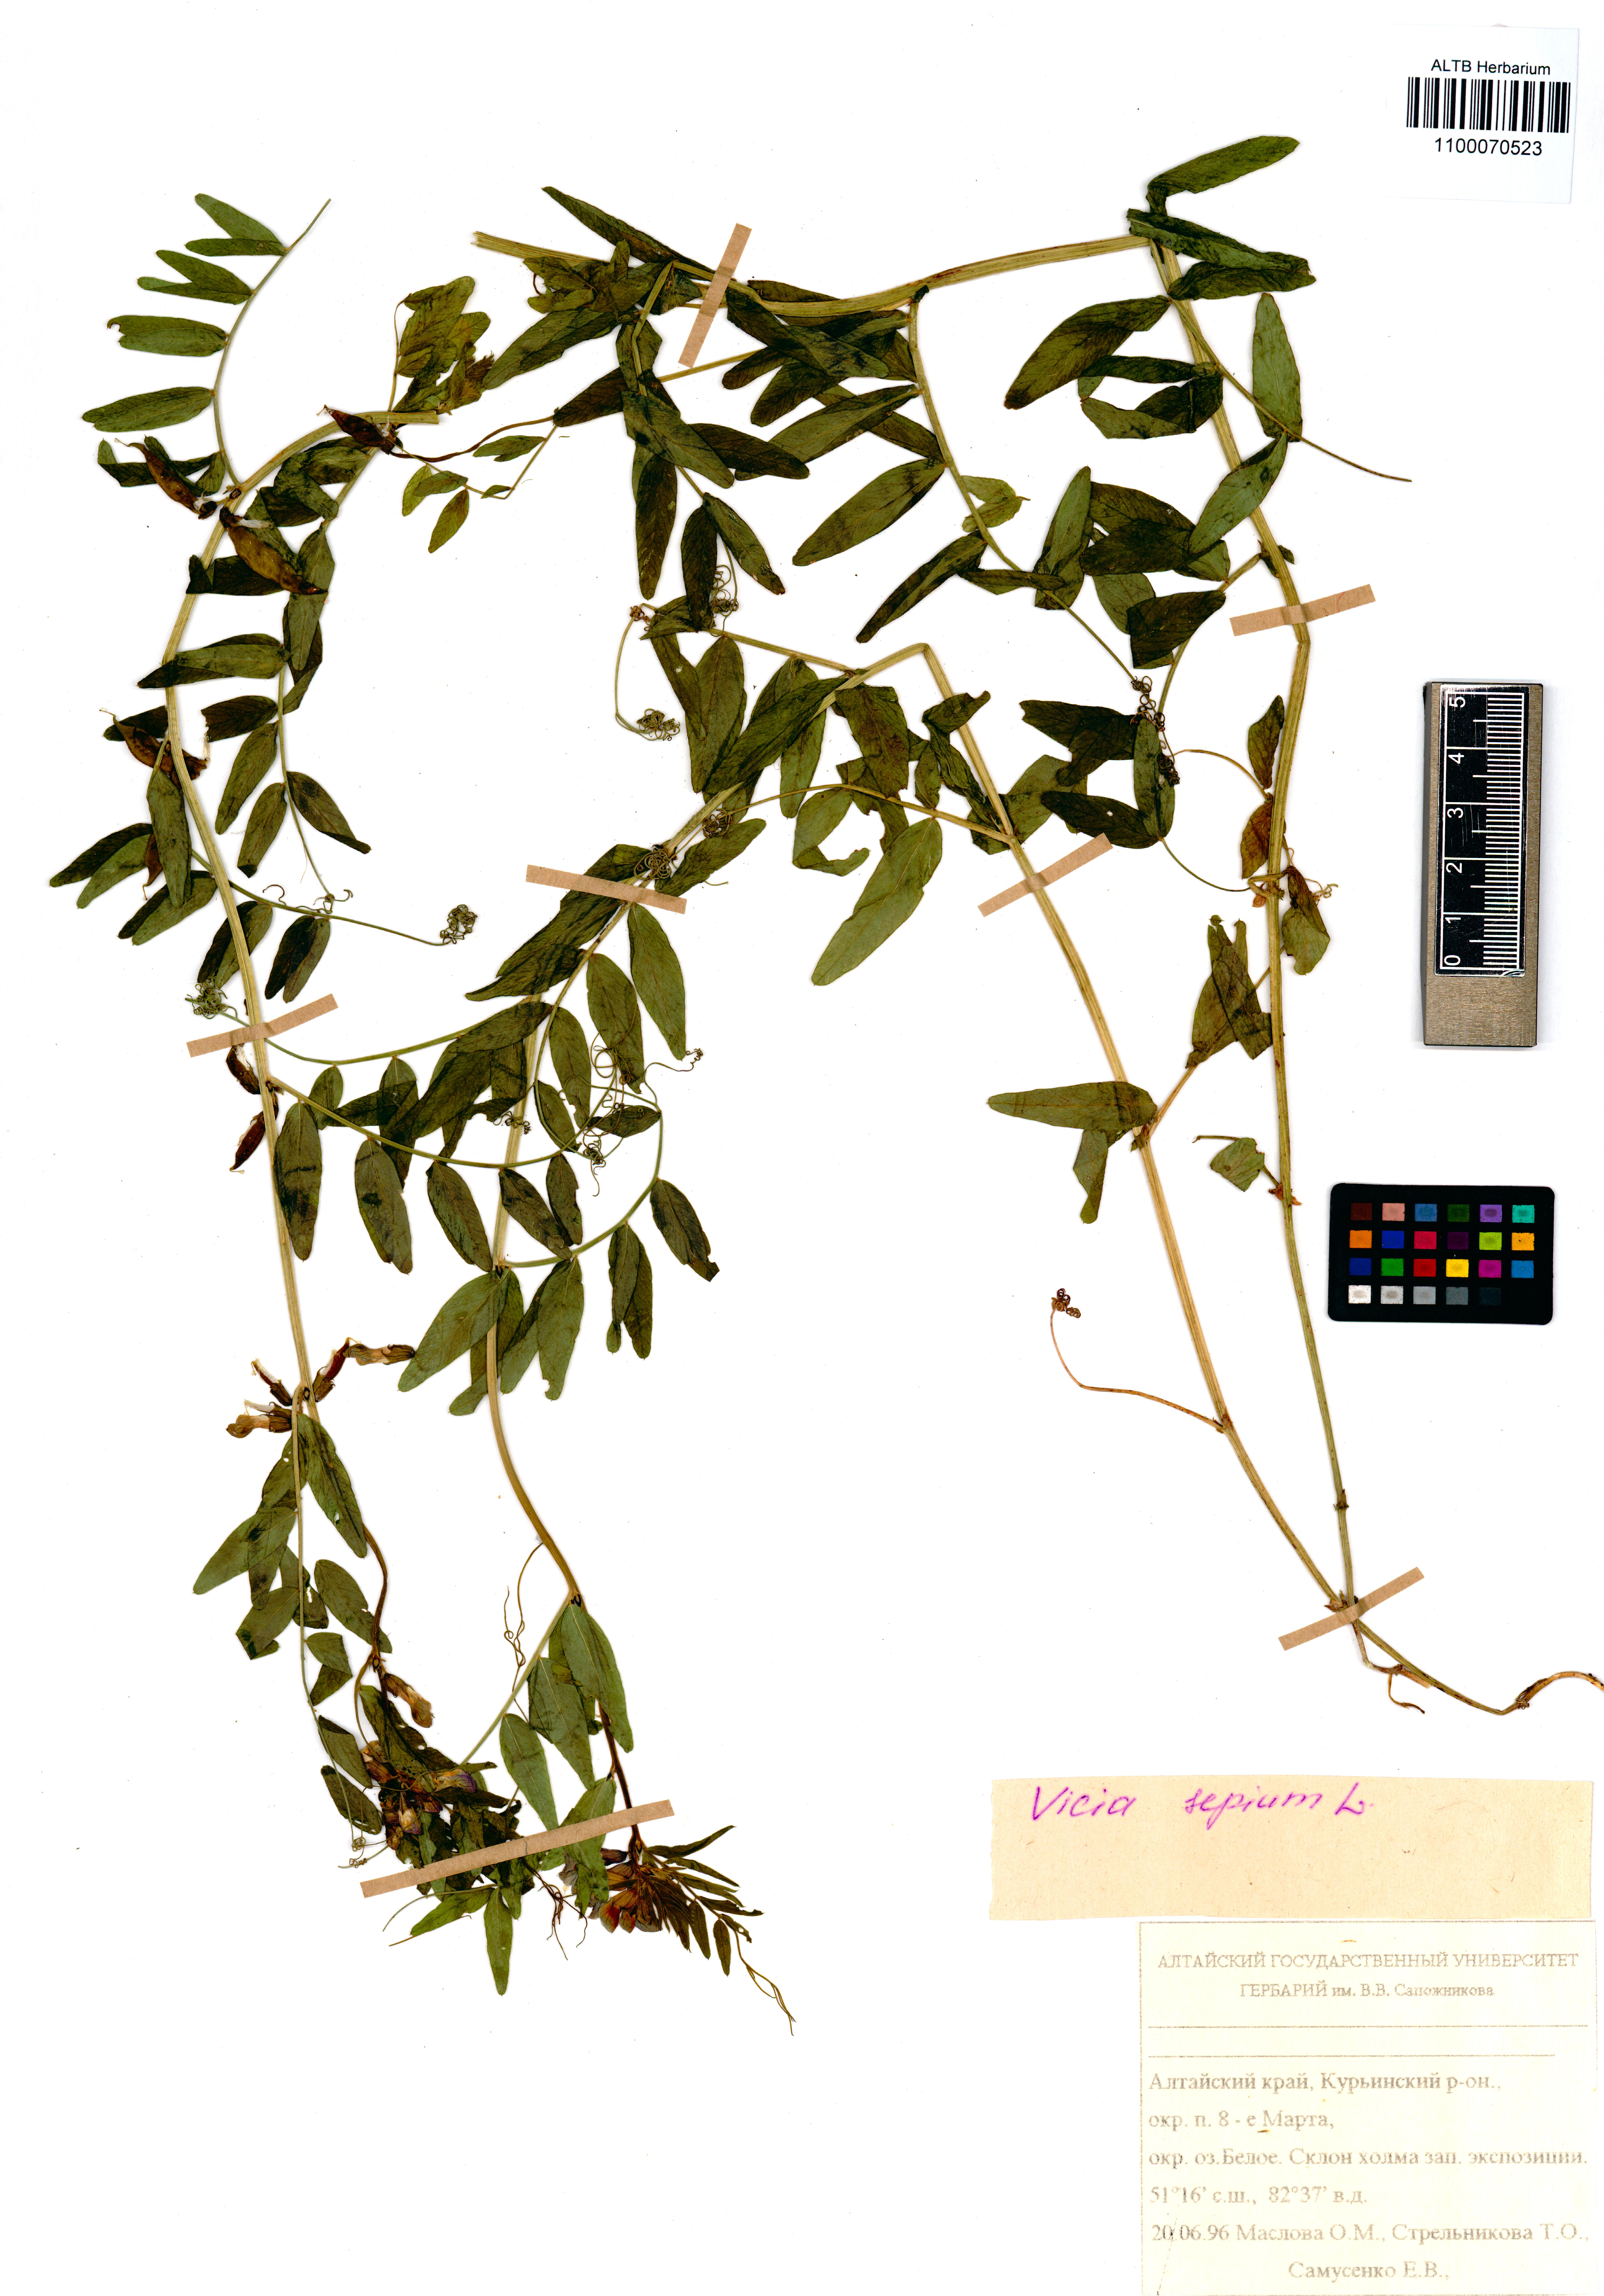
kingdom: Plantae
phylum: Tracheophyta
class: Magnoliopsida
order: Fabales
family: Fabaceae
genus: Vicia
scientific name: Vicia sepium
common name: Bush vetch
